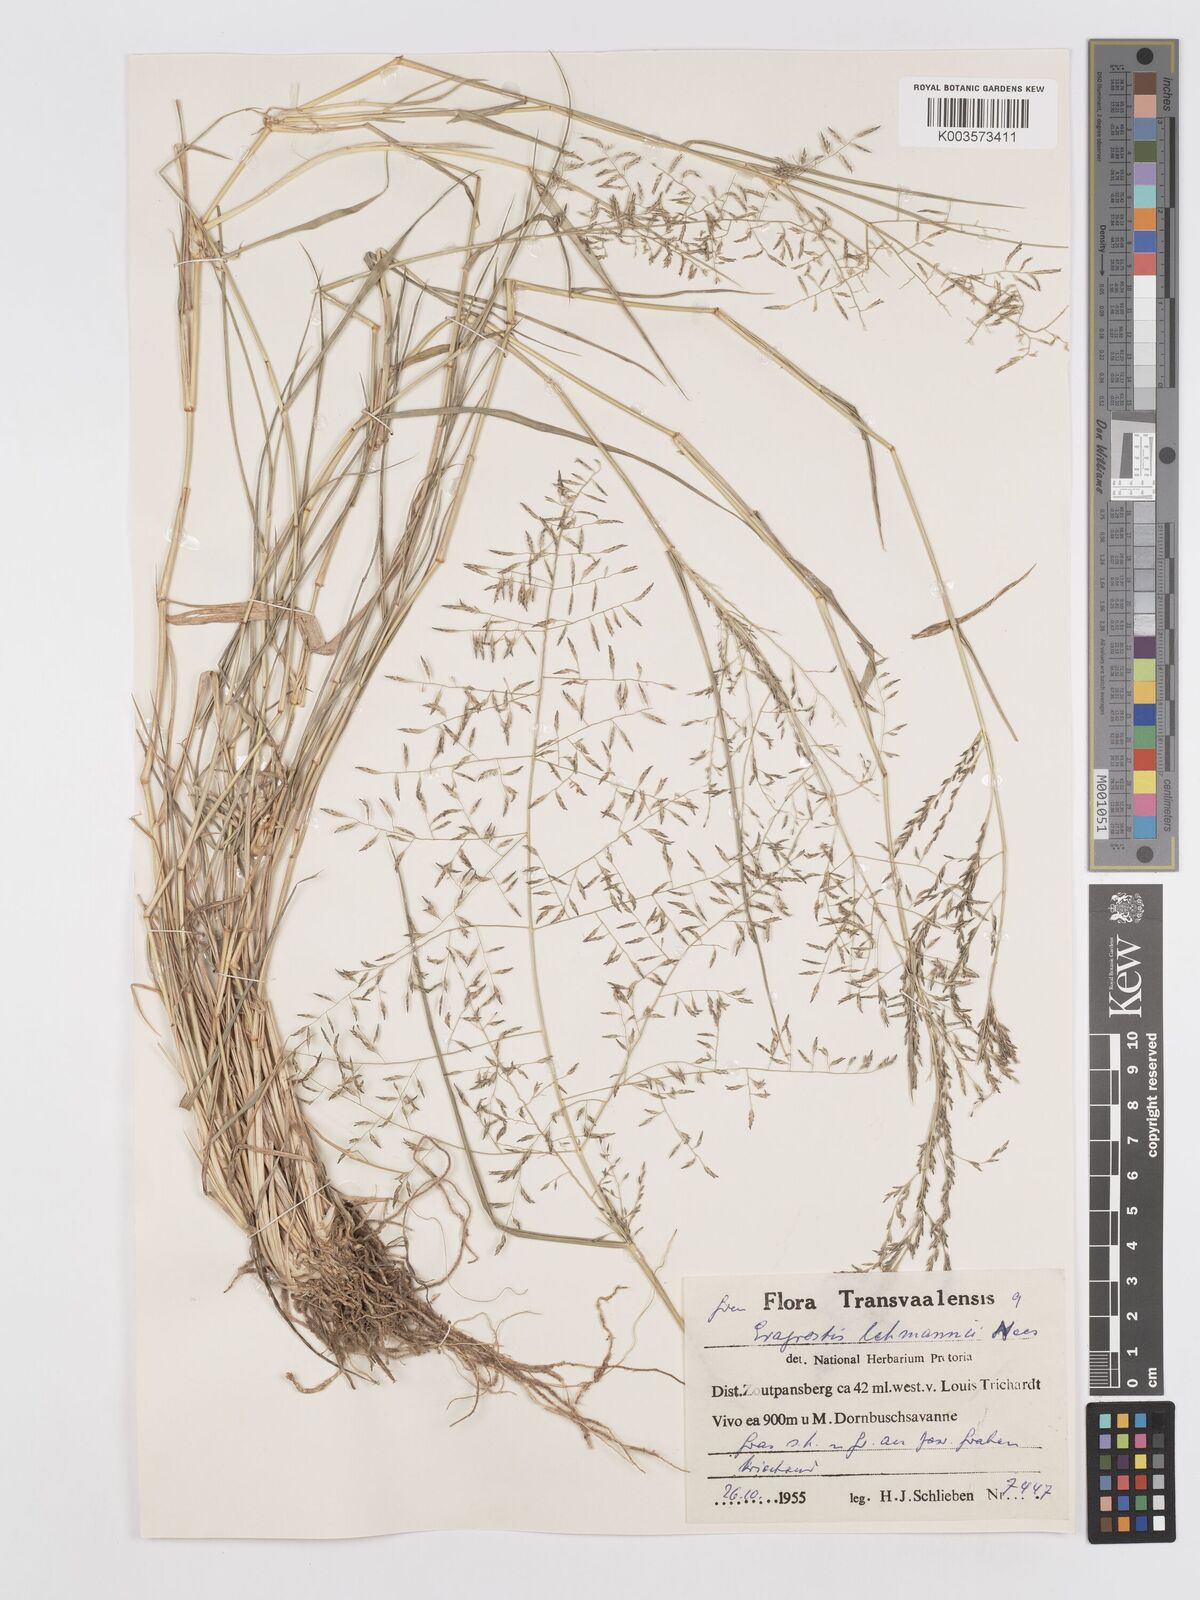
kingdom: Plantae
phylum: Tracheophyta
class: Liliopsida
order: Poales
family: Poaceae
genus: Eragrostis
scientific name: Eragrostis lehmanniana
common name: Lehmann lovegrass
